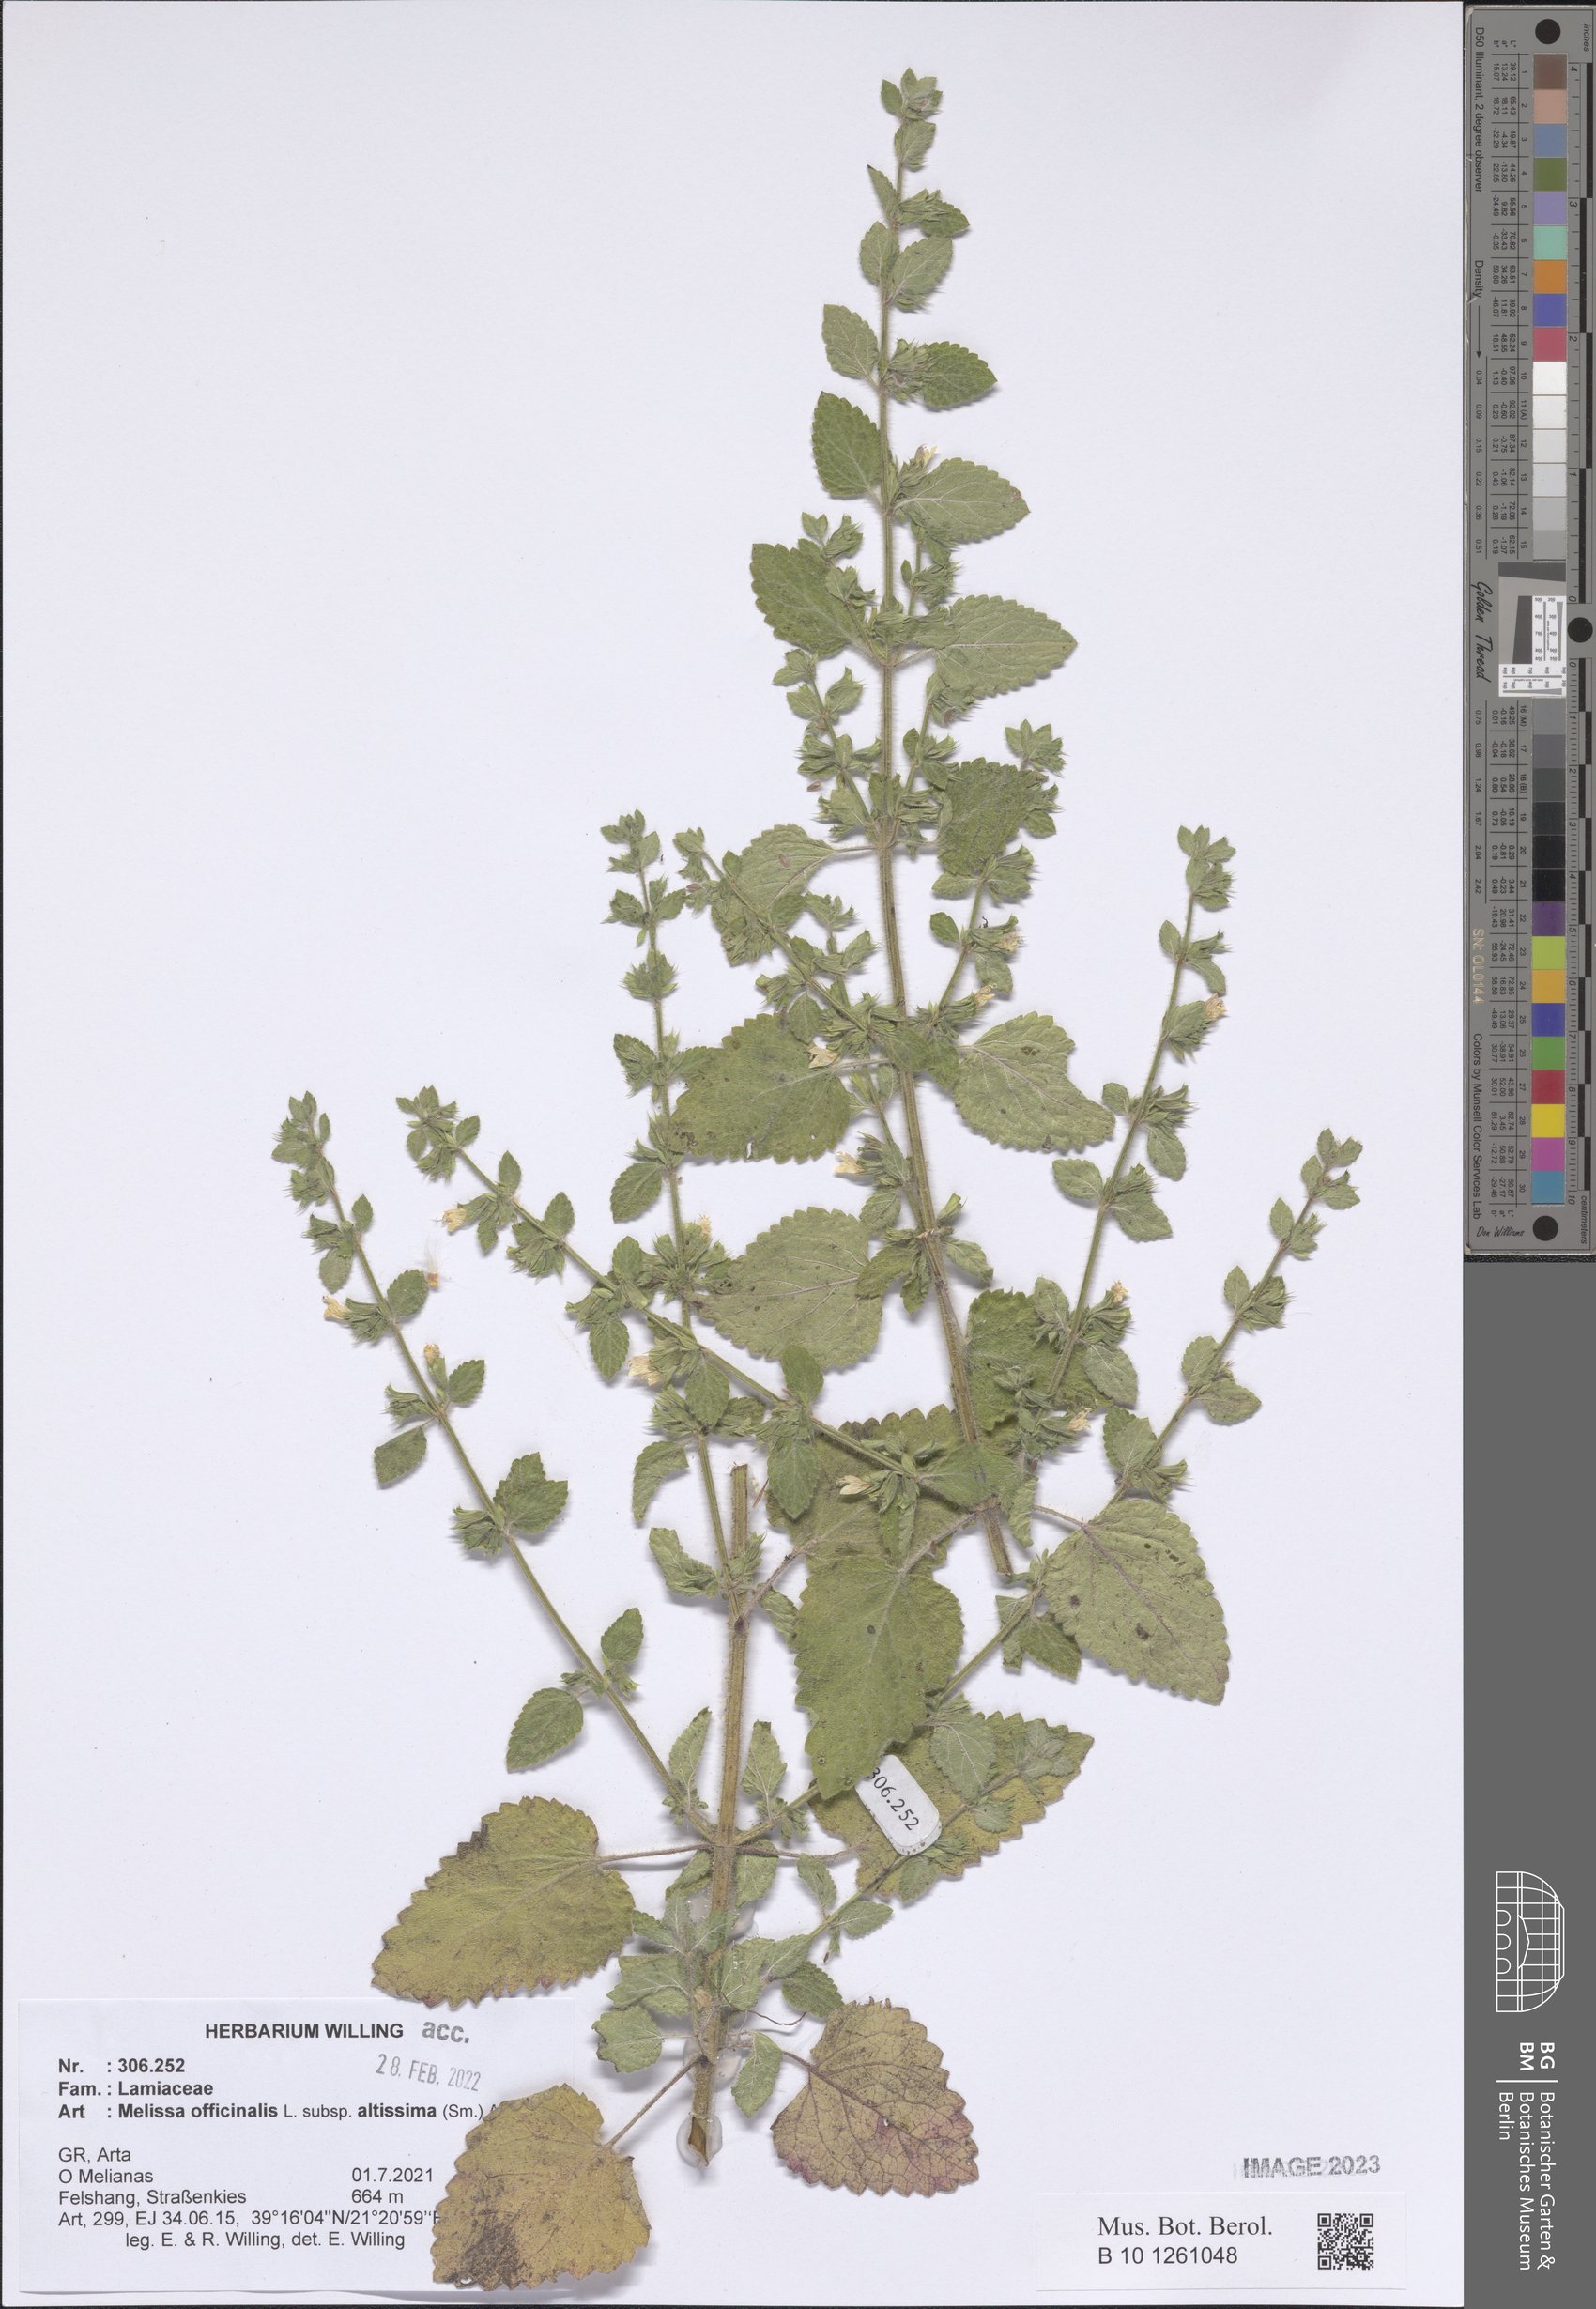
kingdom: Plantae
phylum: Tracheophyta
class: Magnoliopsida
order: Lamiales
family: Lamiaceae
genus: Melissa
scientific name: Melissa officinalis
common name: Balm
